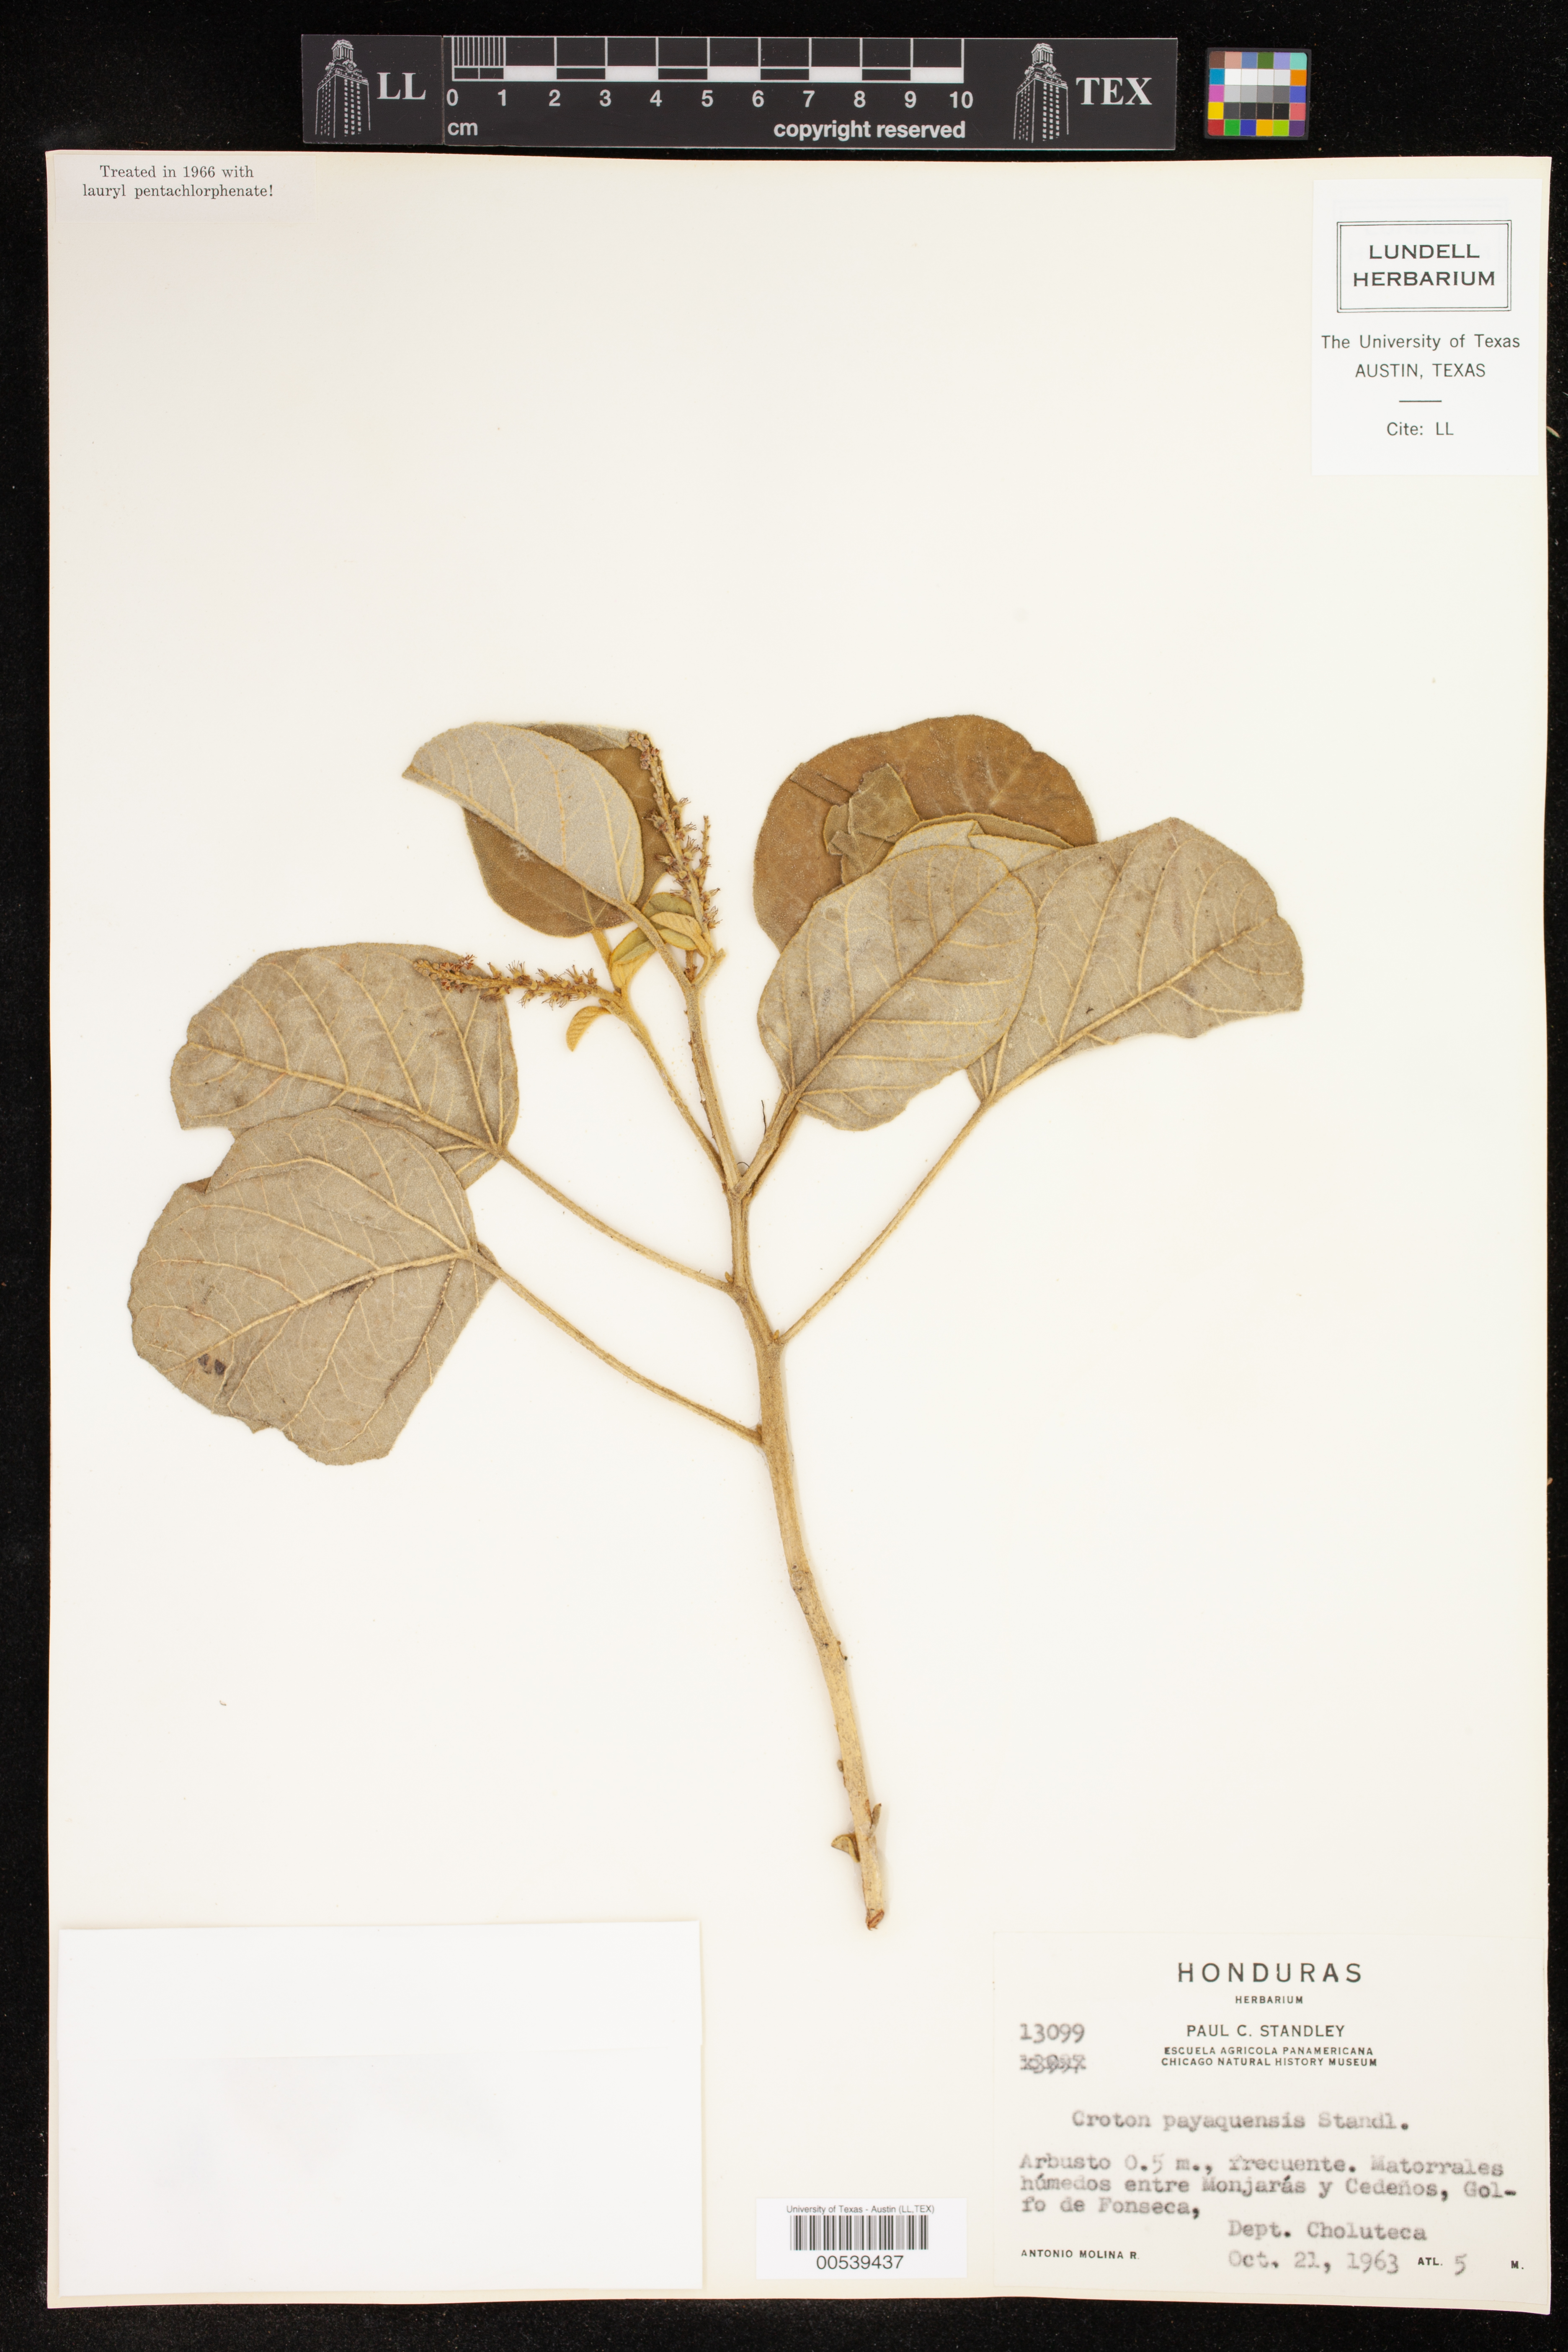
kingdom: Plantae
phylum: Tracheophyta
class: Magnoliopsida
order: Malpighiales
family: Euphorbiaceae
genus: Croton
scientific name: Croton payaquensis
